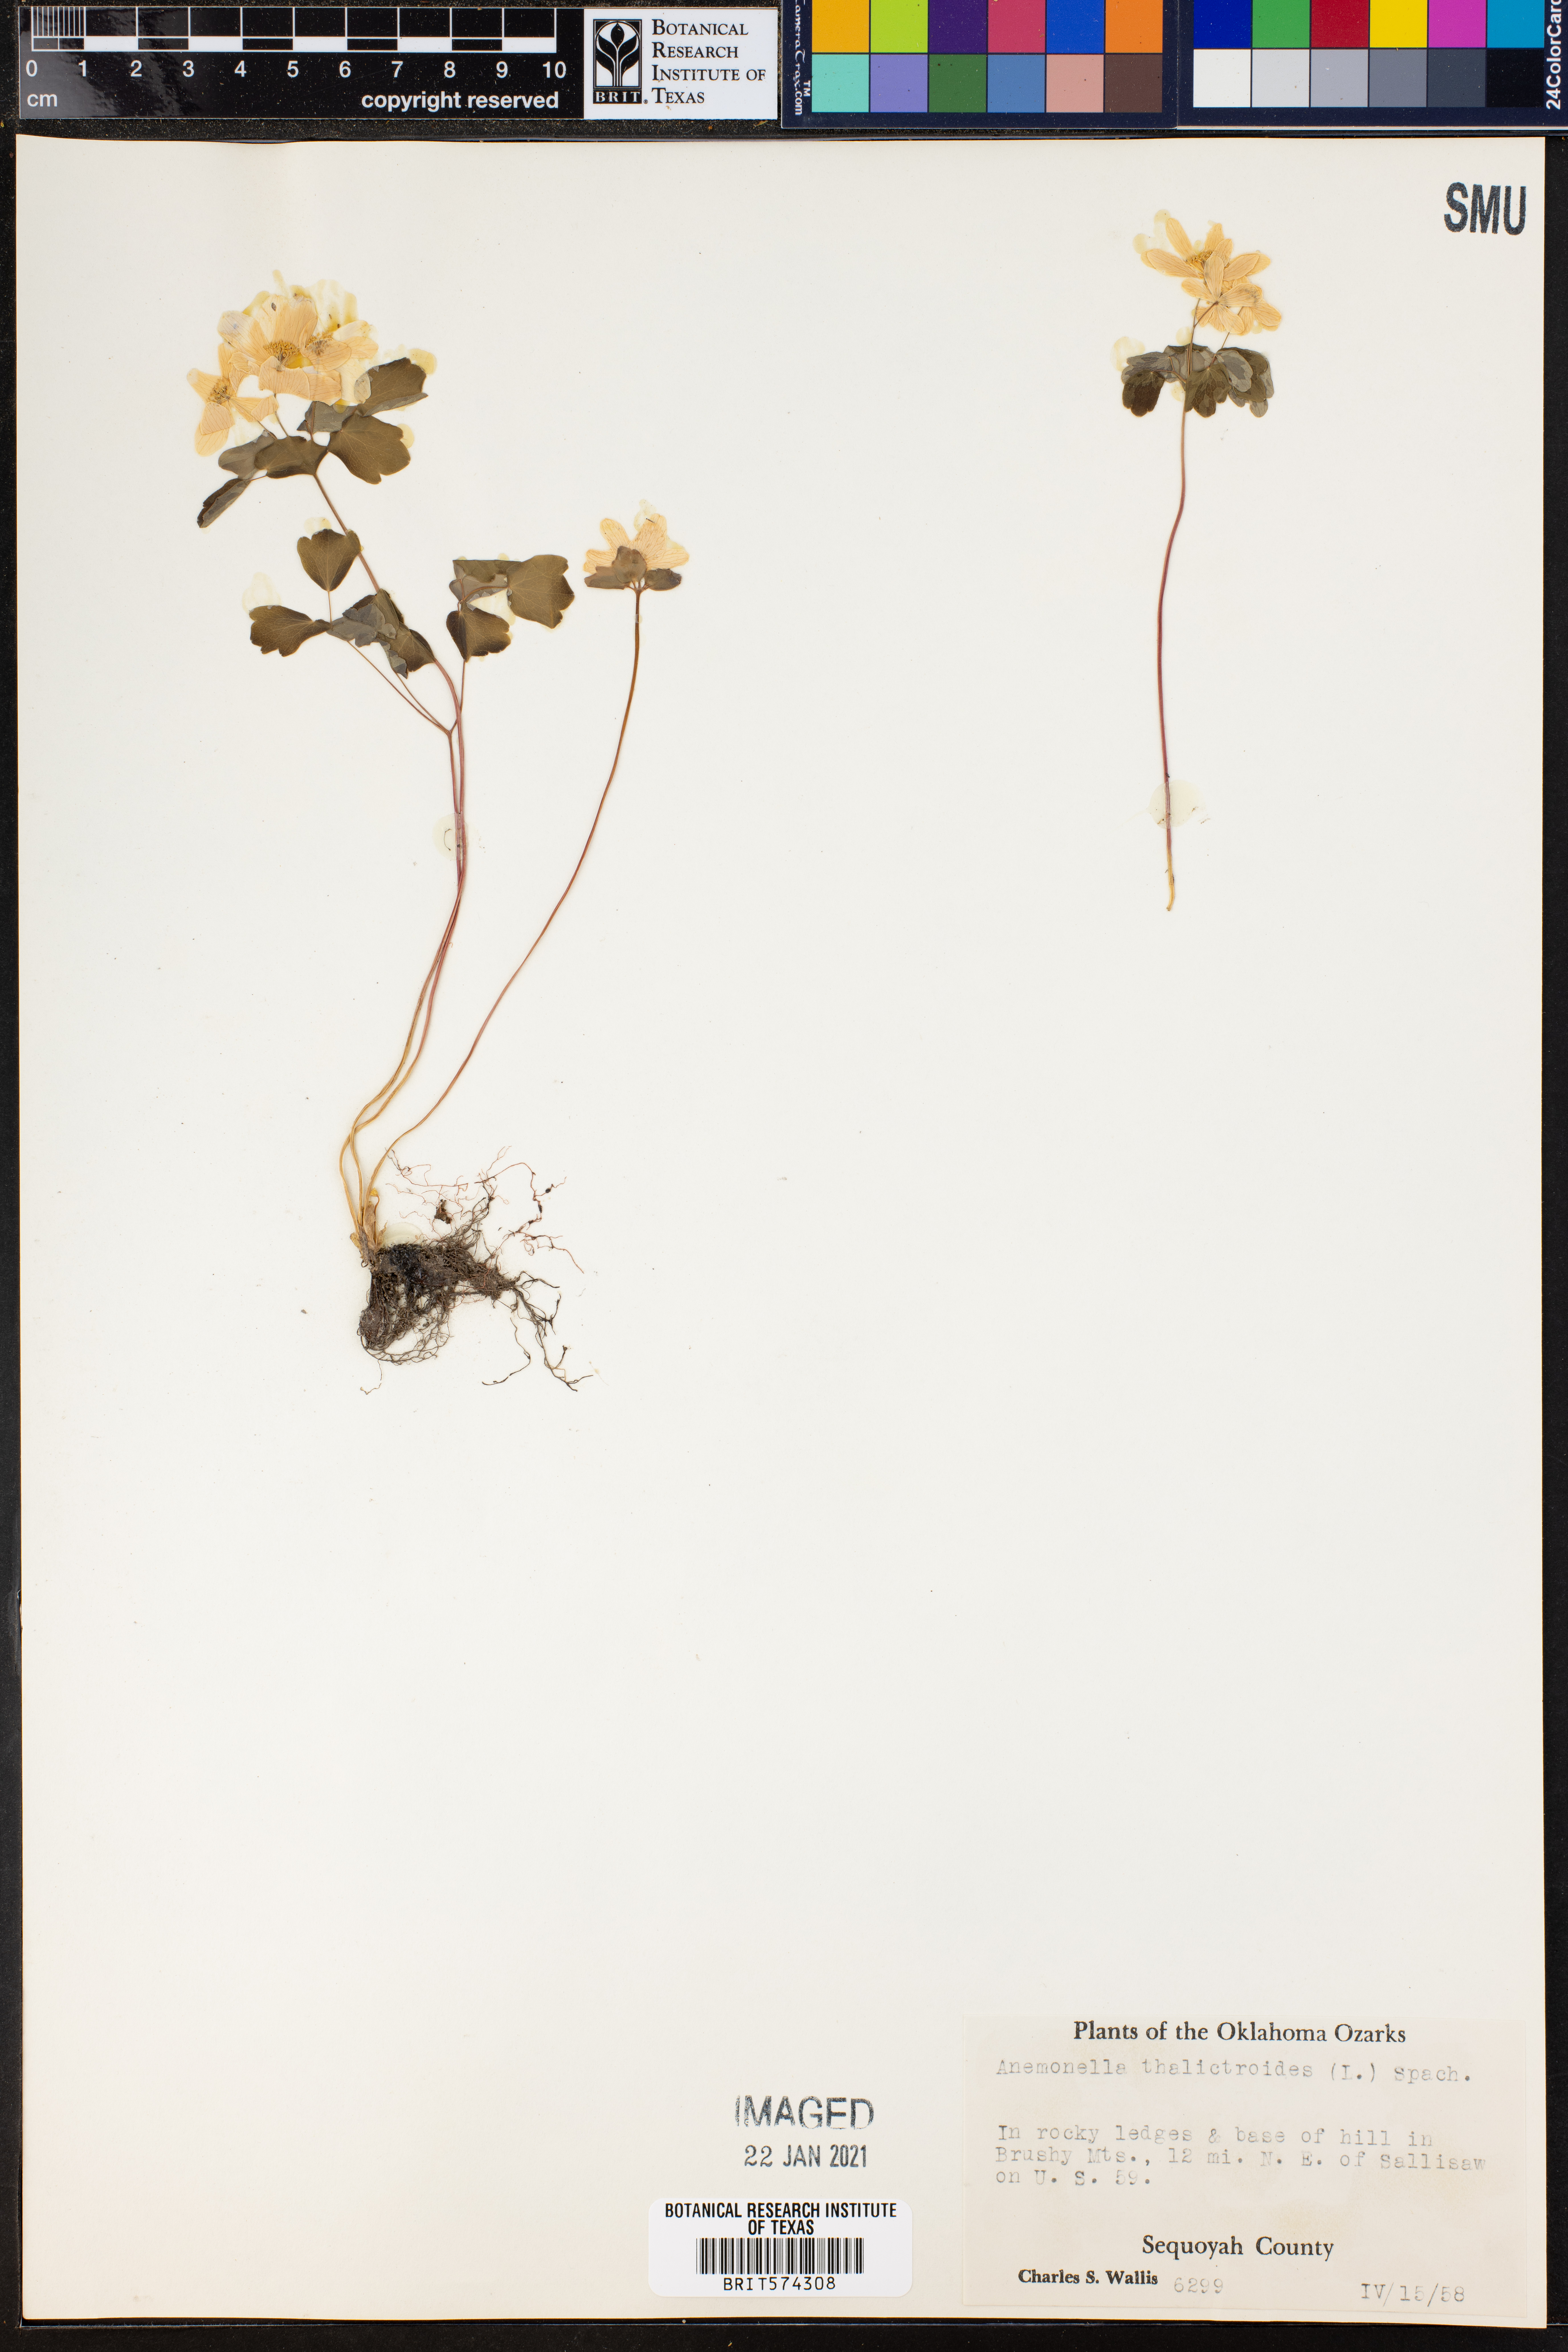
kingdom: Plantae
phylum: Tracheophyta
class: Magnoliopsida
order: Ranunculales
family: Ranunculaceae
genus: Thalictrum
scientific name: Thalictrum thalictroides
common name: Rue-anemone
